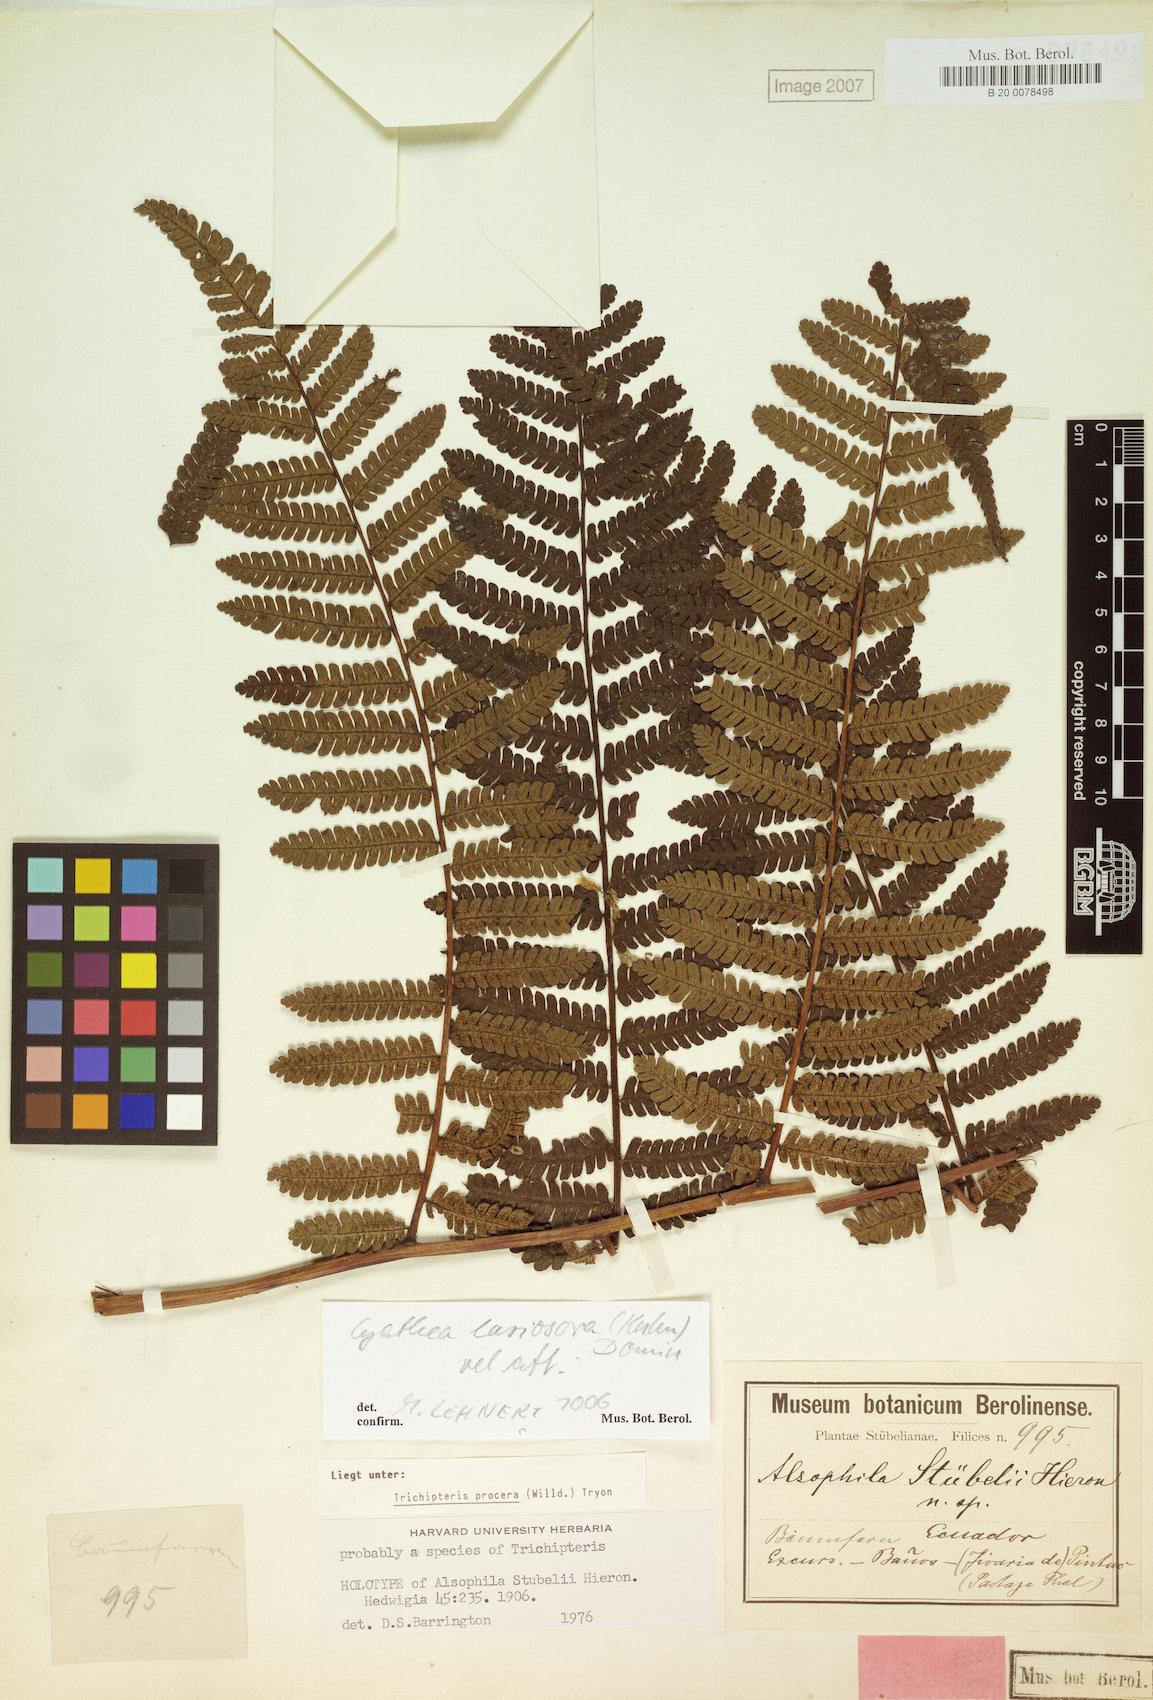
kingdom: Plantae
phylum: Tracheophyta
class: Polypodiopsida
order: Cyatheales
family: Cyatheaceae
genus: Cyathea
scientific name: Cyathea pungens
